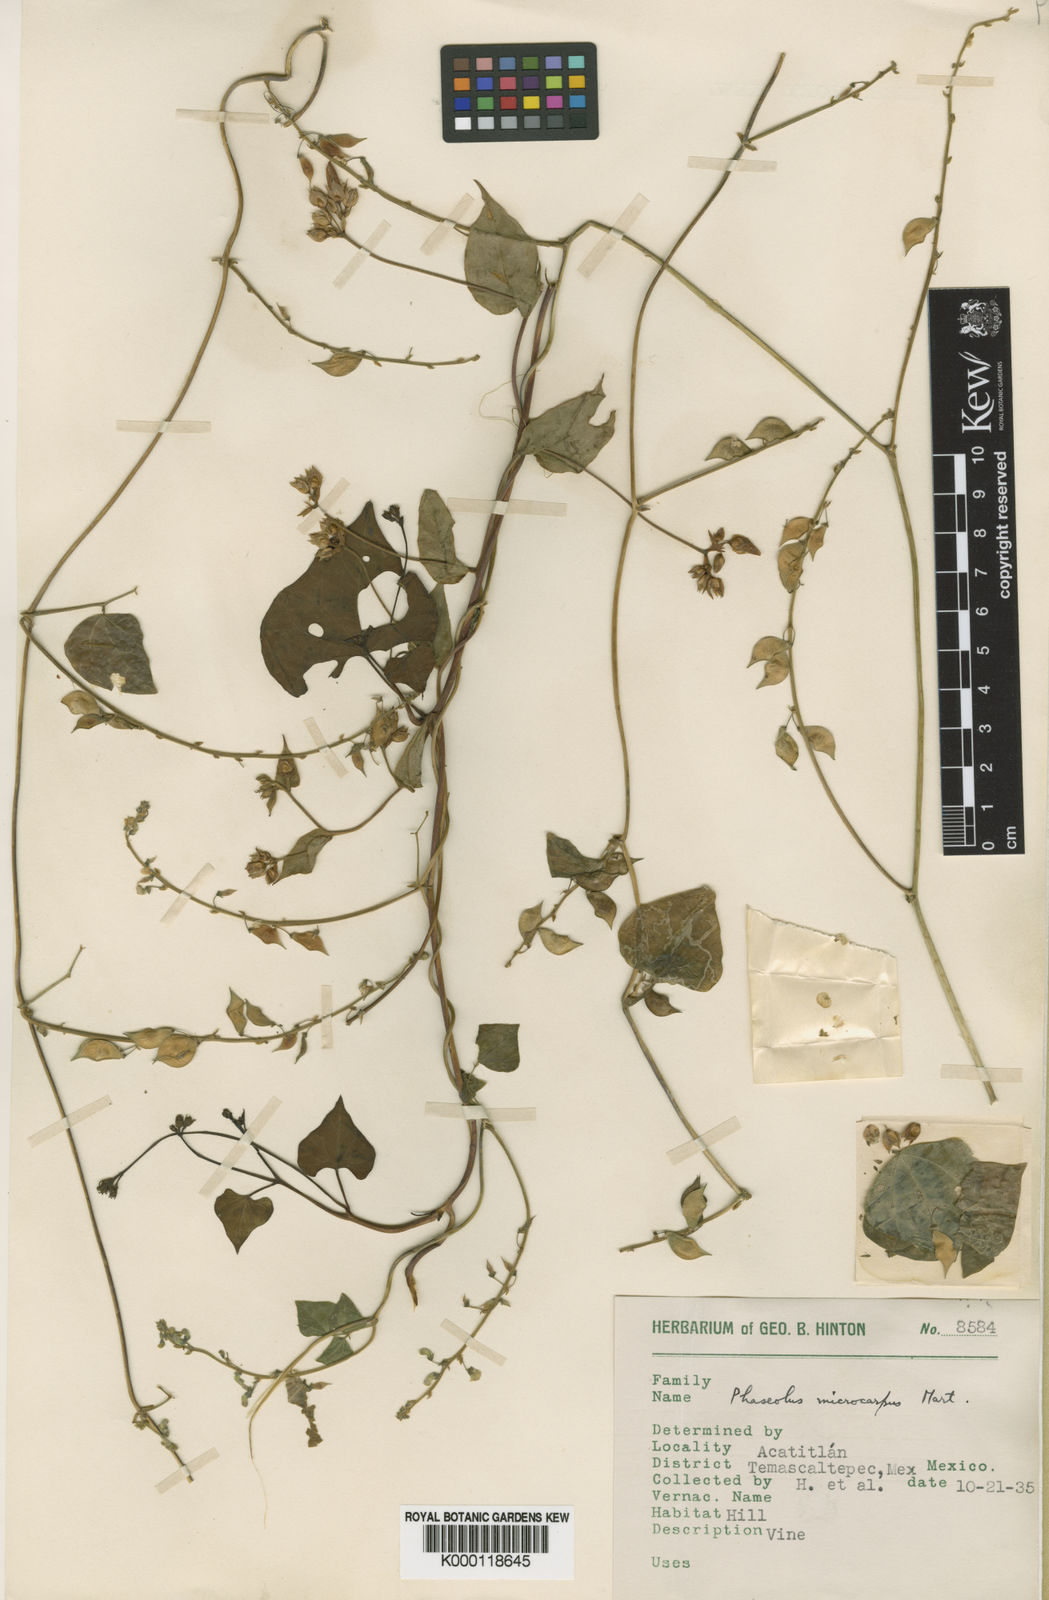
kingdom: Plantae
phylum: Tracheophyta
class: Magnoliopsida
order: Fabales
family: Fabaceae
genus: Phaseolus
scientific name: Phaseolus microcarpus
